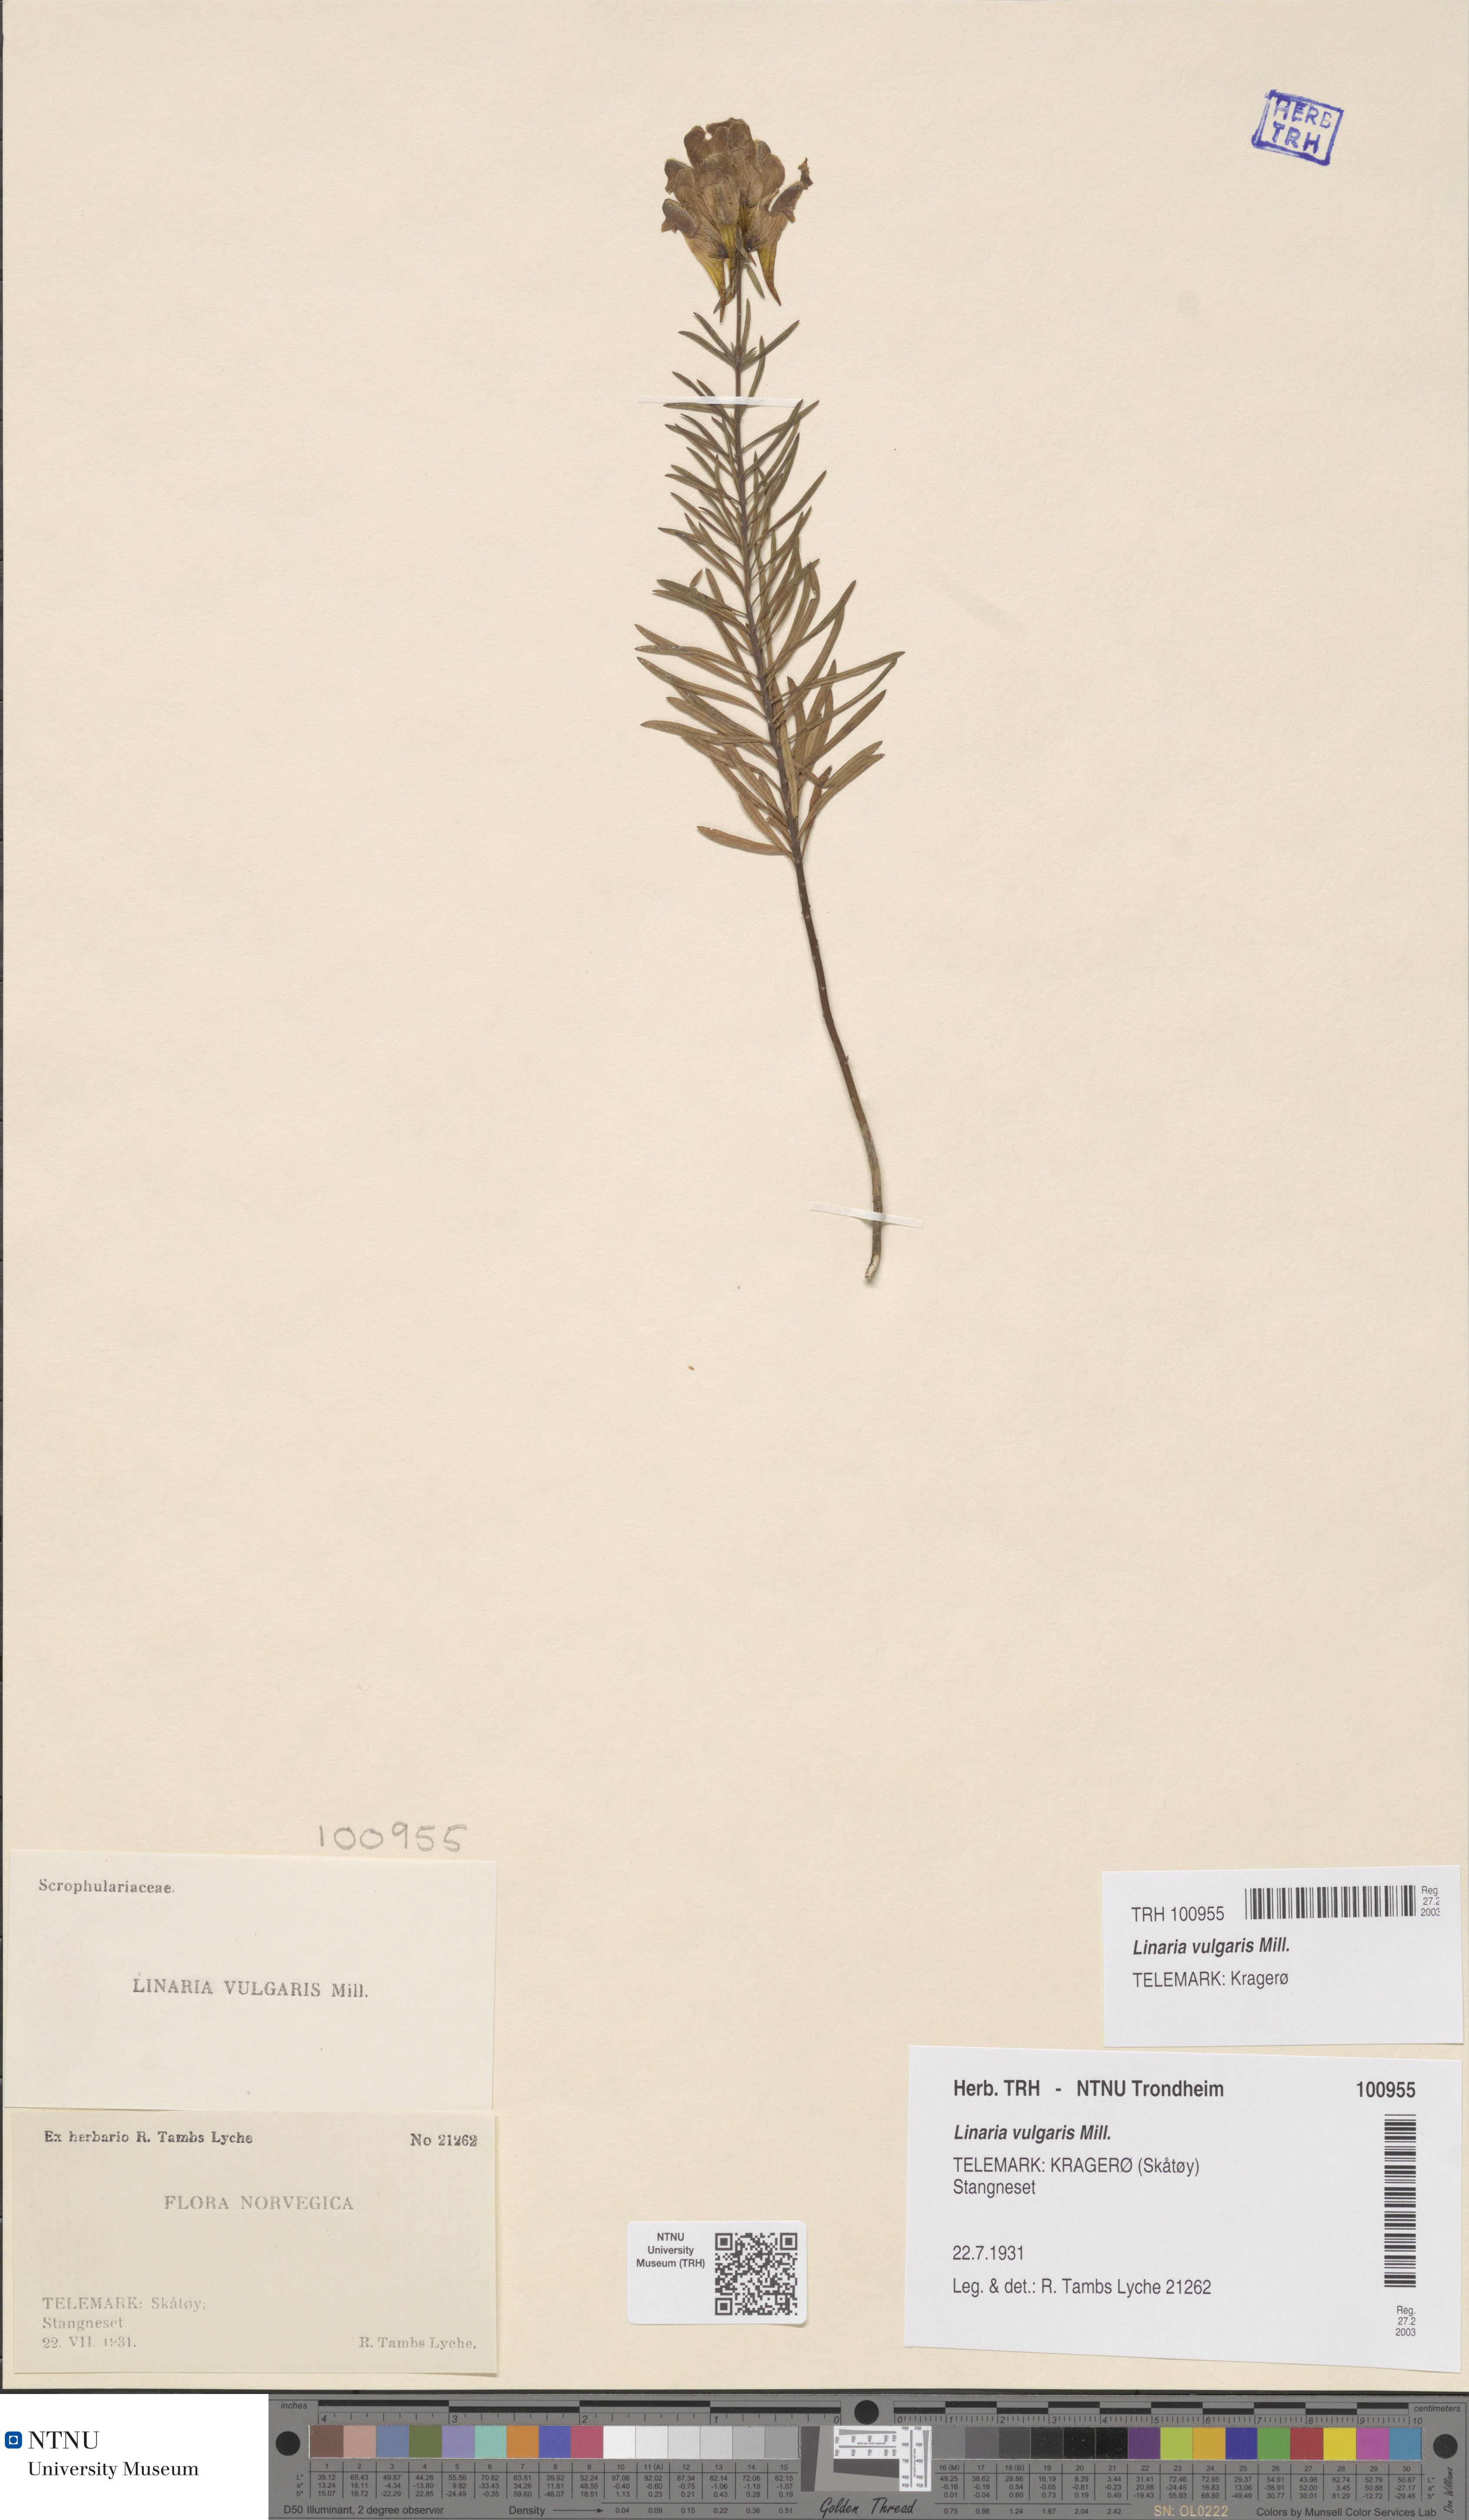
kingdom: Plantae
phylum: Tracheophyta
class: Magnoliopsida
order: Lamiales
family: Plantaginaceae
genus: Linaria
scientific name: Linaria vulgaris
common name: Butter and eggs
